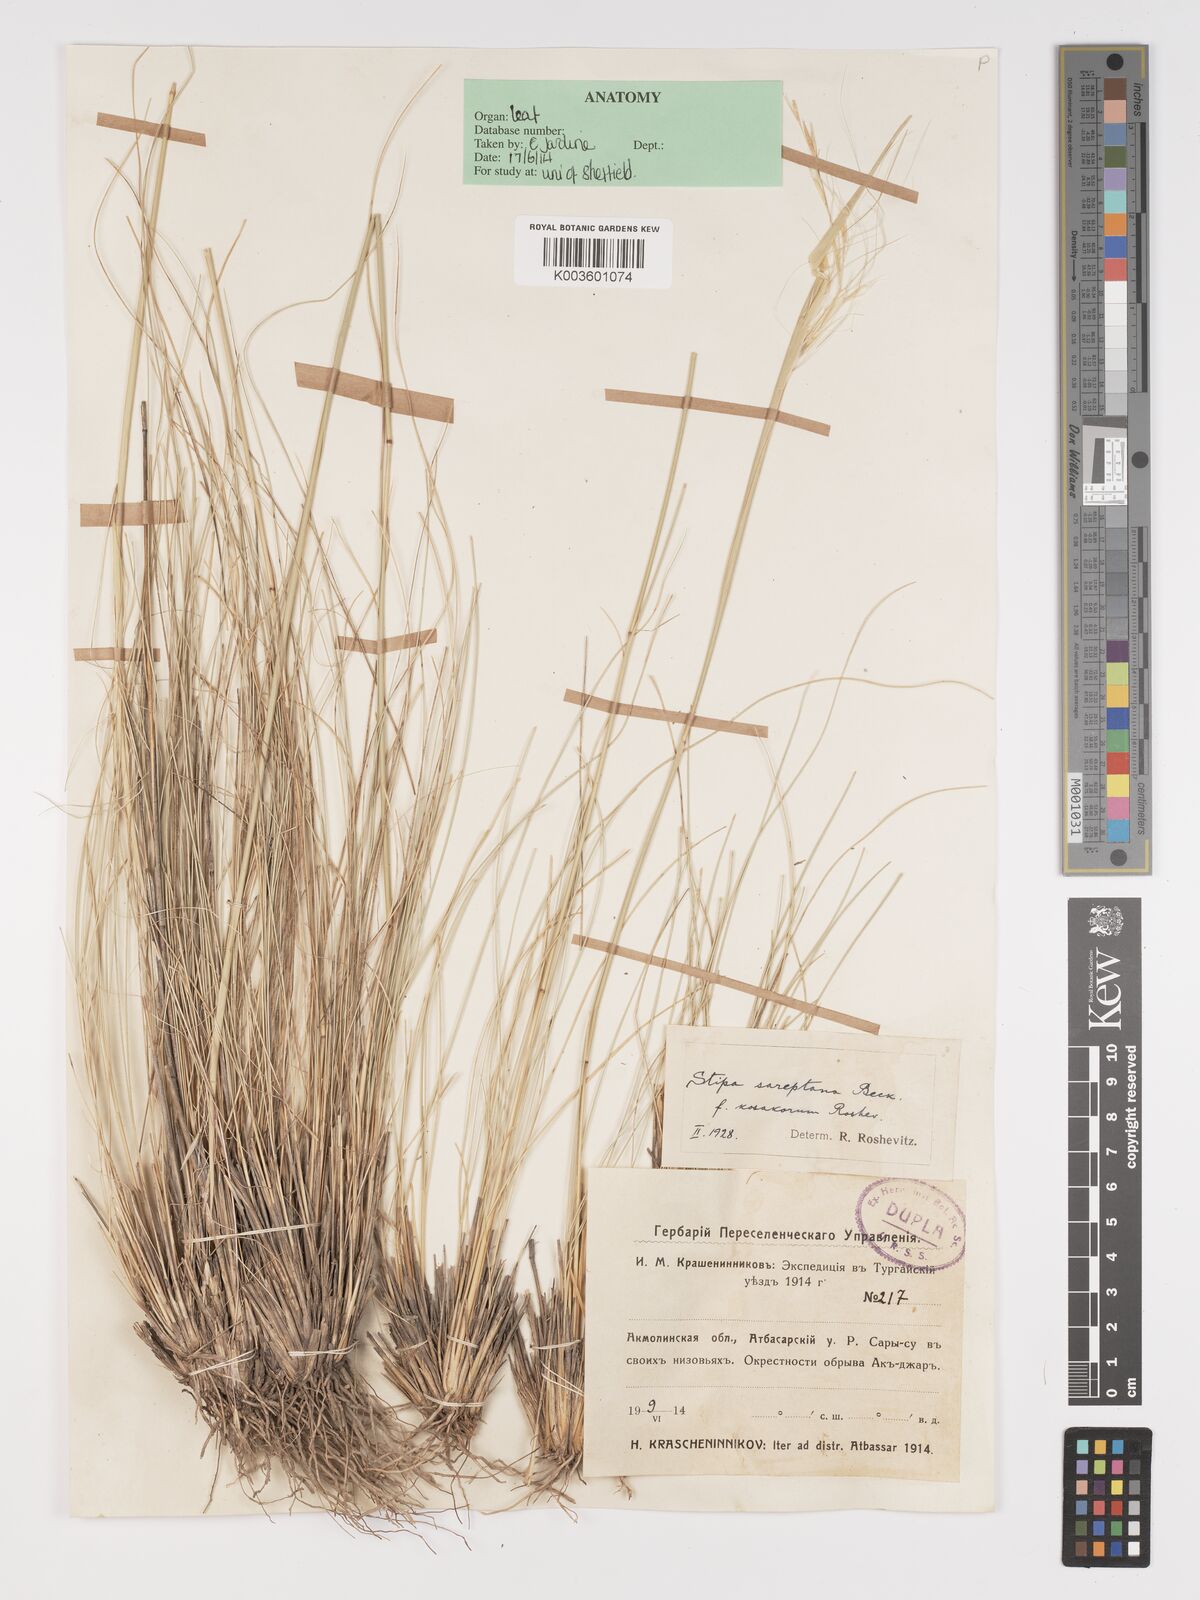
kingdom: Plantae
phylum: Tracheophyta
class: Liliopsida
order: Poales
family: Poaceae
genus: Stipa
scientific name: Stipa sareptana
